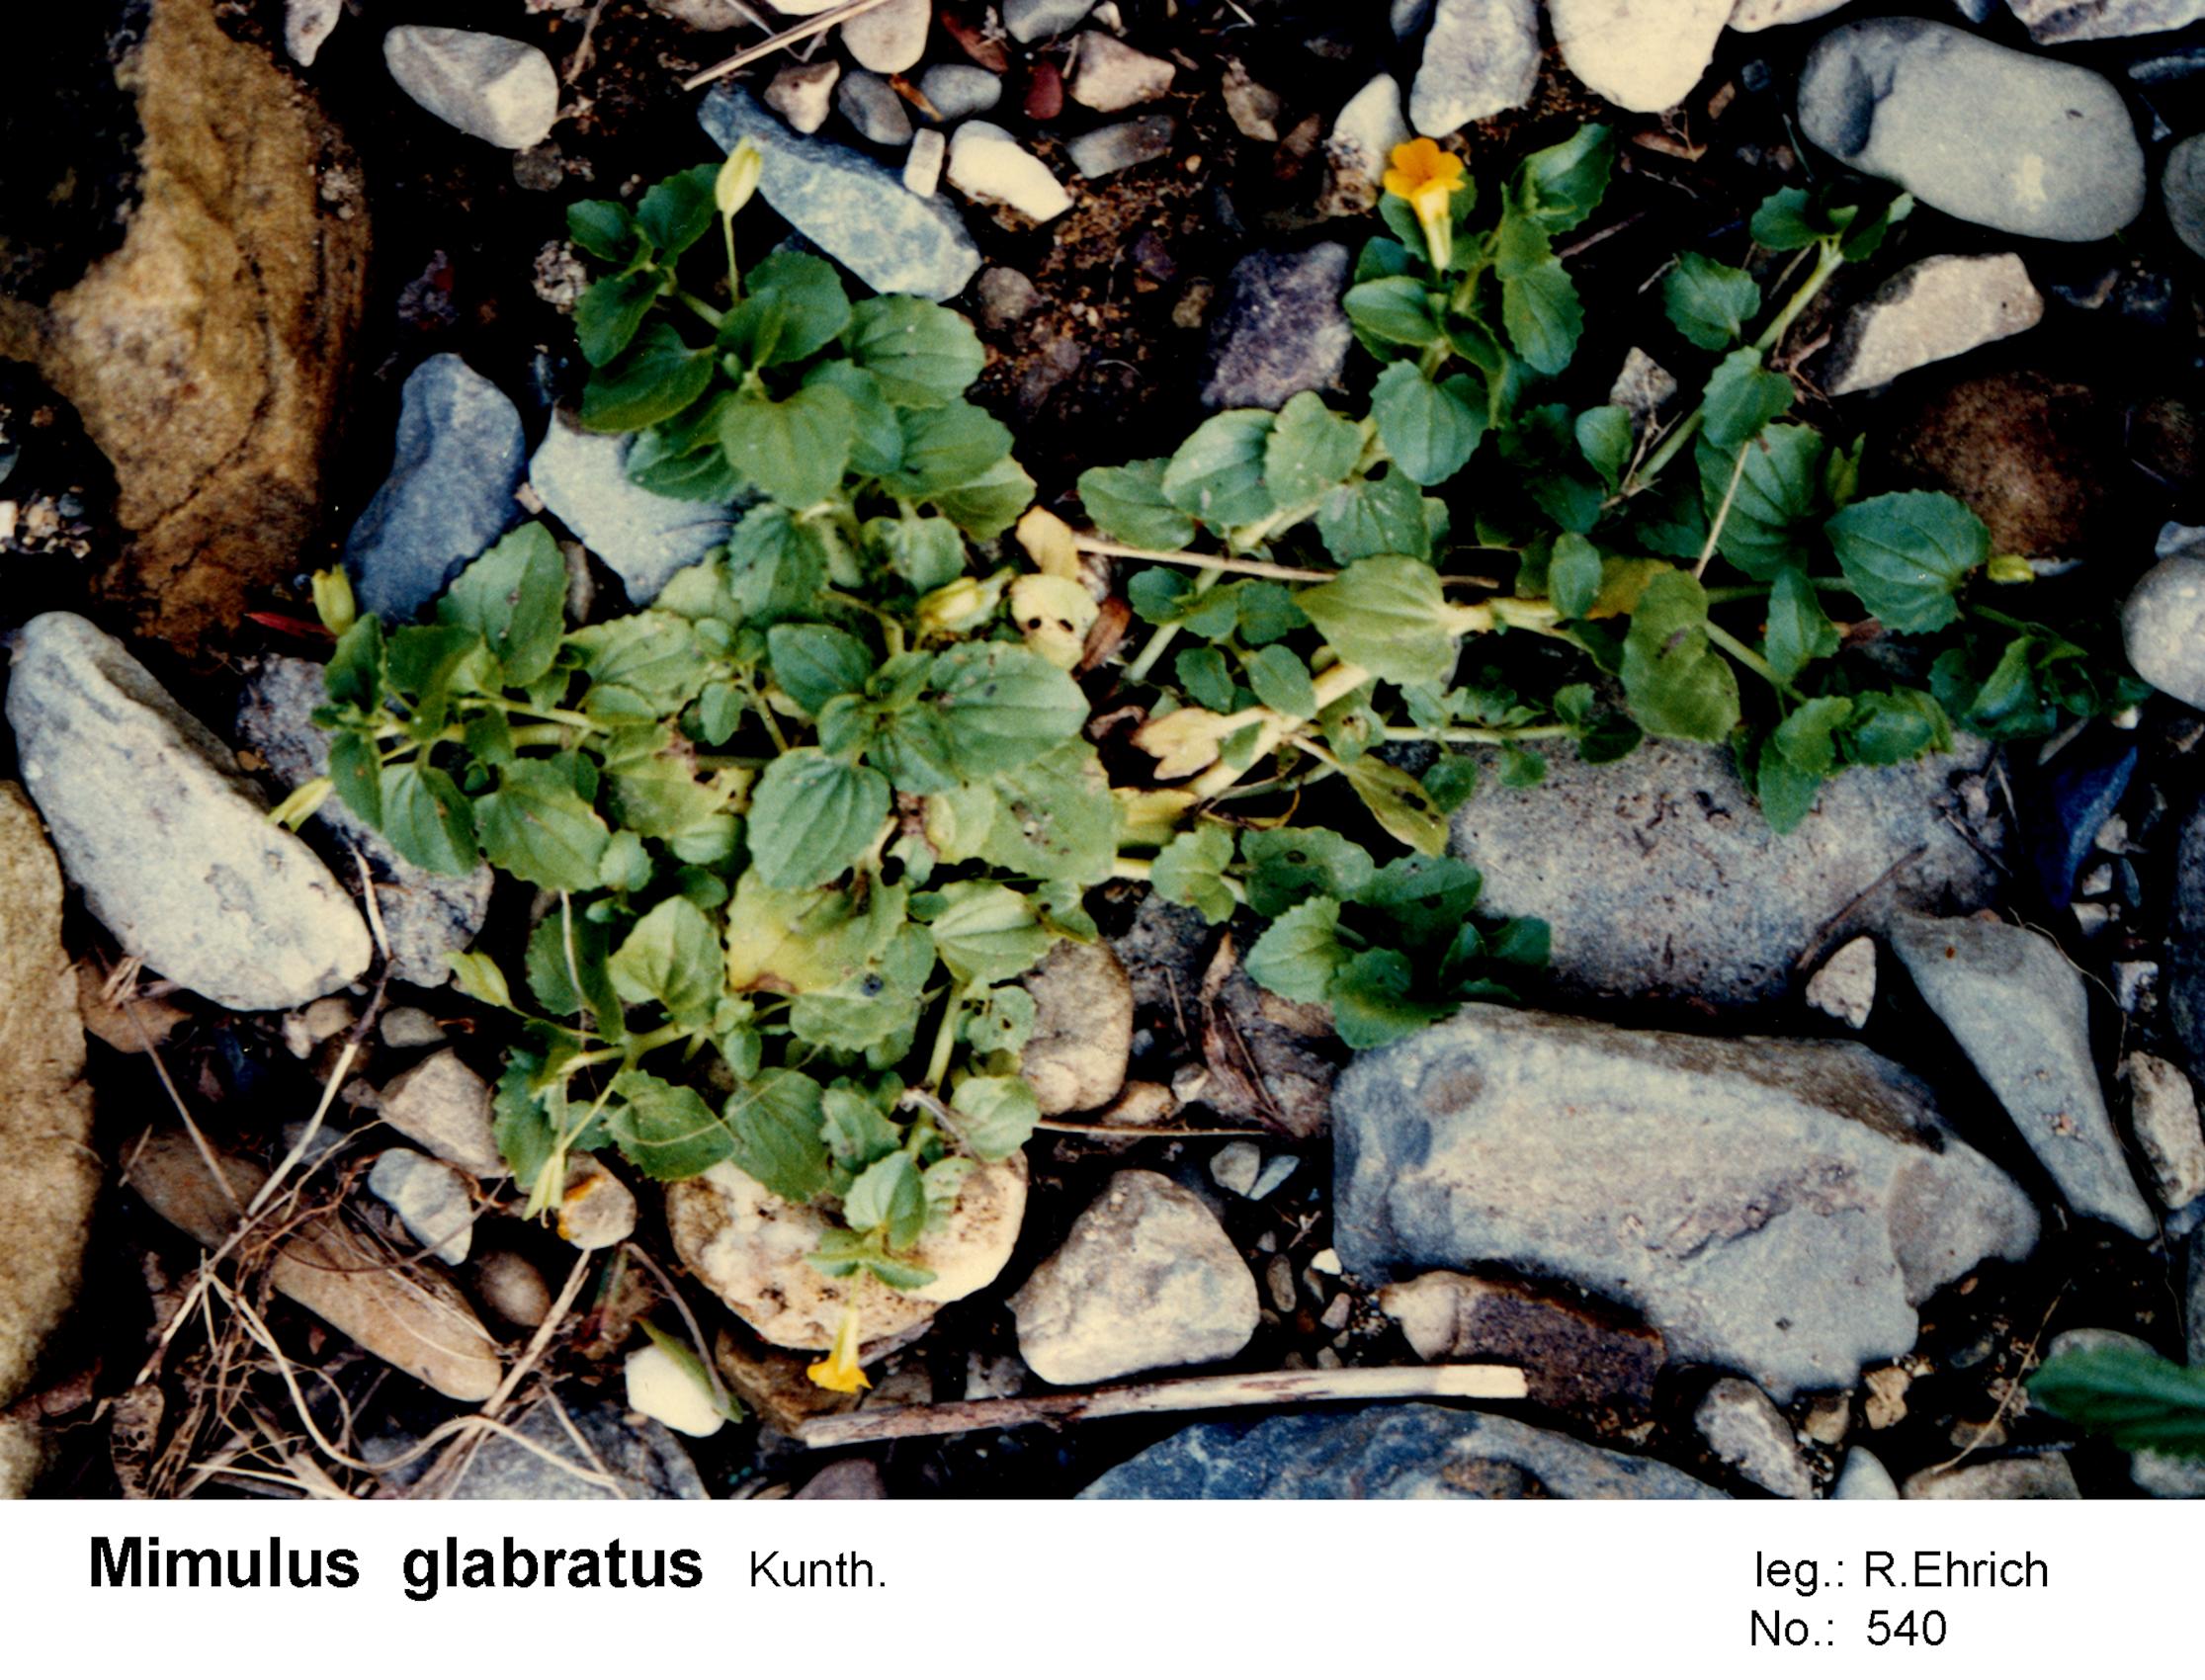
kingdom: Plantae
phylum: Tracheophyta
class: Magnoliopsida
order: Lamiales
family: Phrymaceae
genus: Erythranthe
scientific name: Erythranthe glabrata
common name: Round-leaved monkeyflower
